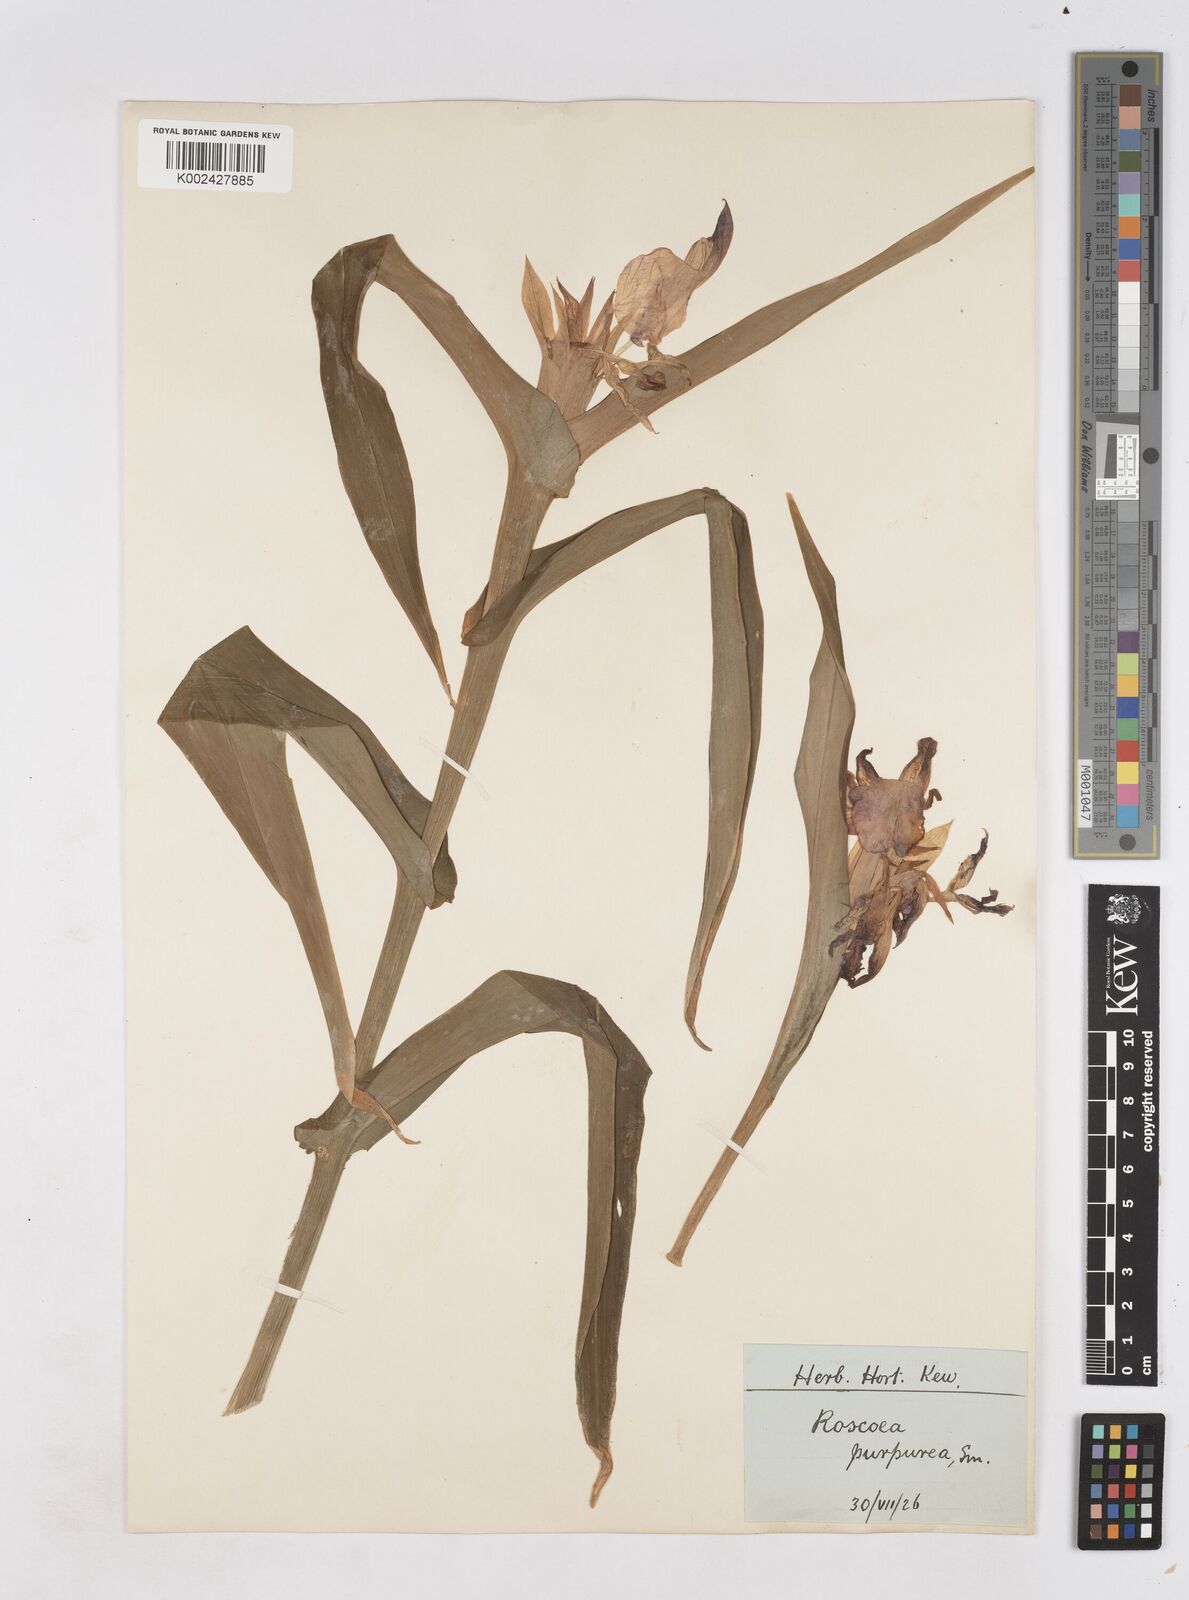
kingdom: Plantae
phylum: Tracheophyta
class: Liliopsida
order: Zingiberales
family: Zingiberaceae
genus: Roscoea
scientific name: Roscoea auriculata
